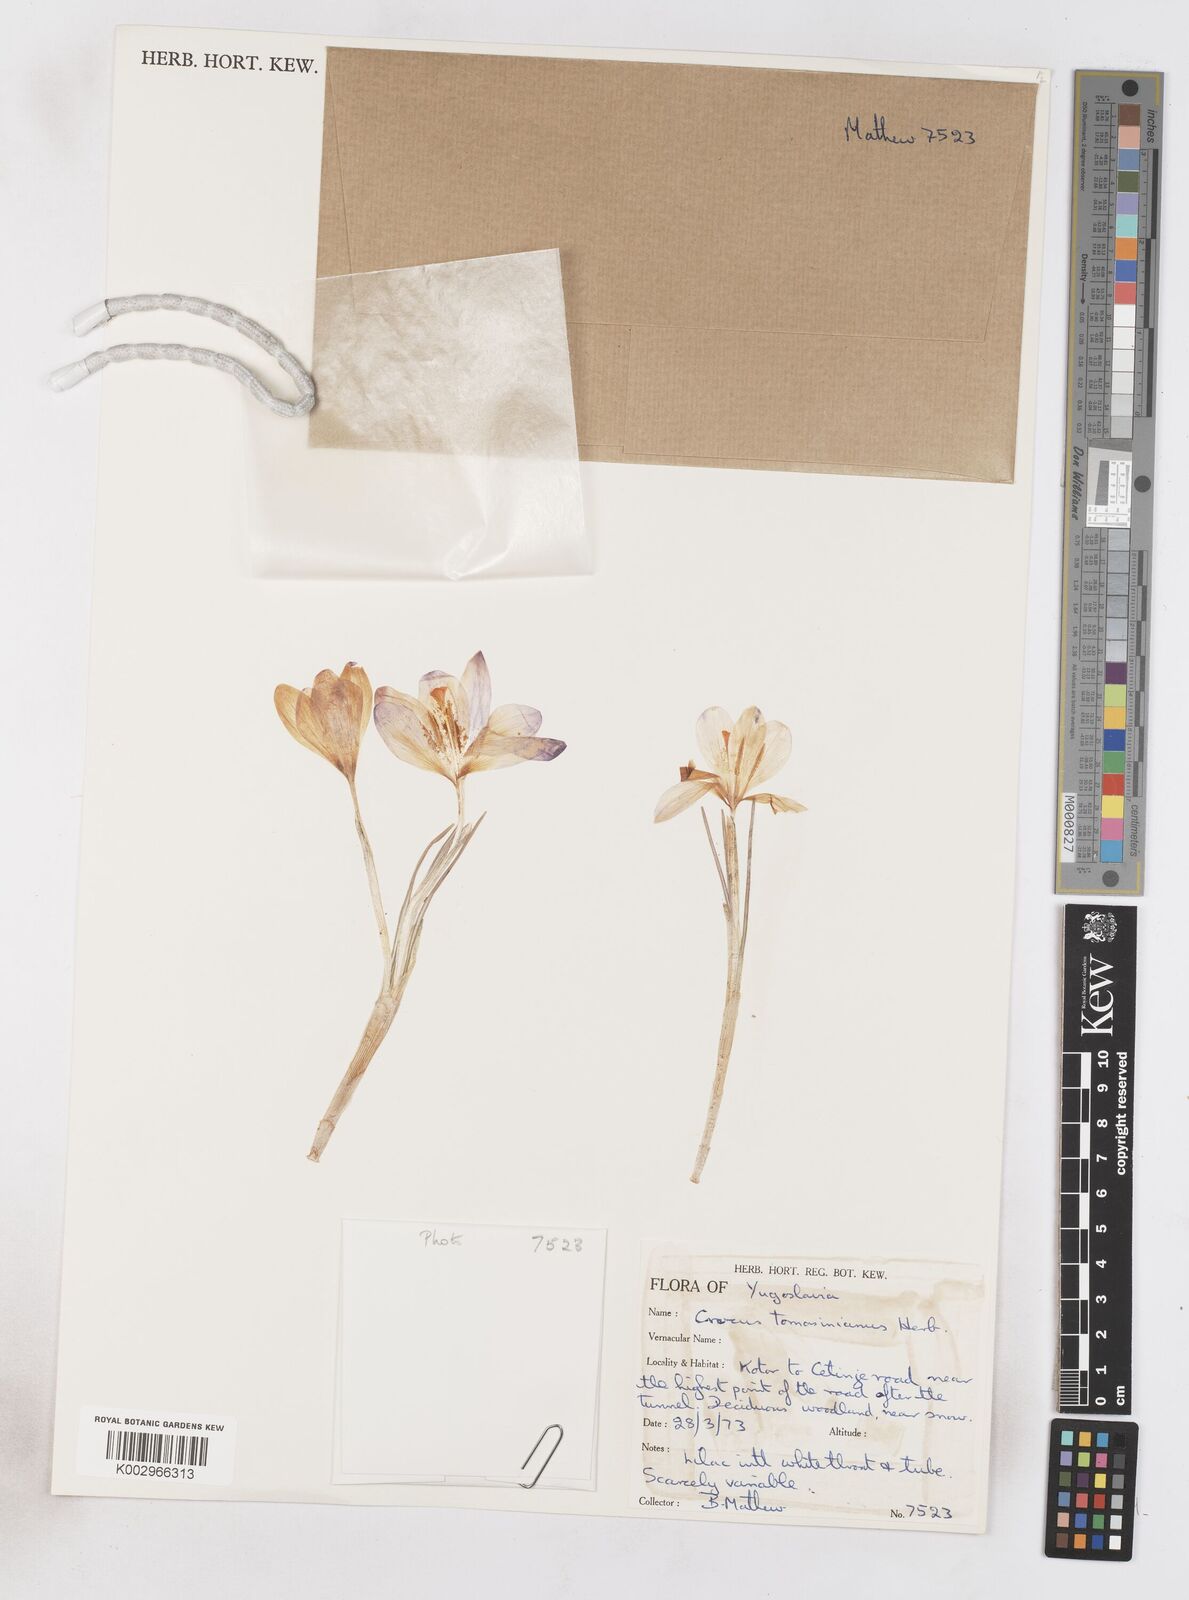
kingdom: Plantae
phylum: Tracheophyta
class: Liliopsida
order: Asparagales
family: Iridaceae
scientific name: Iridaceae
